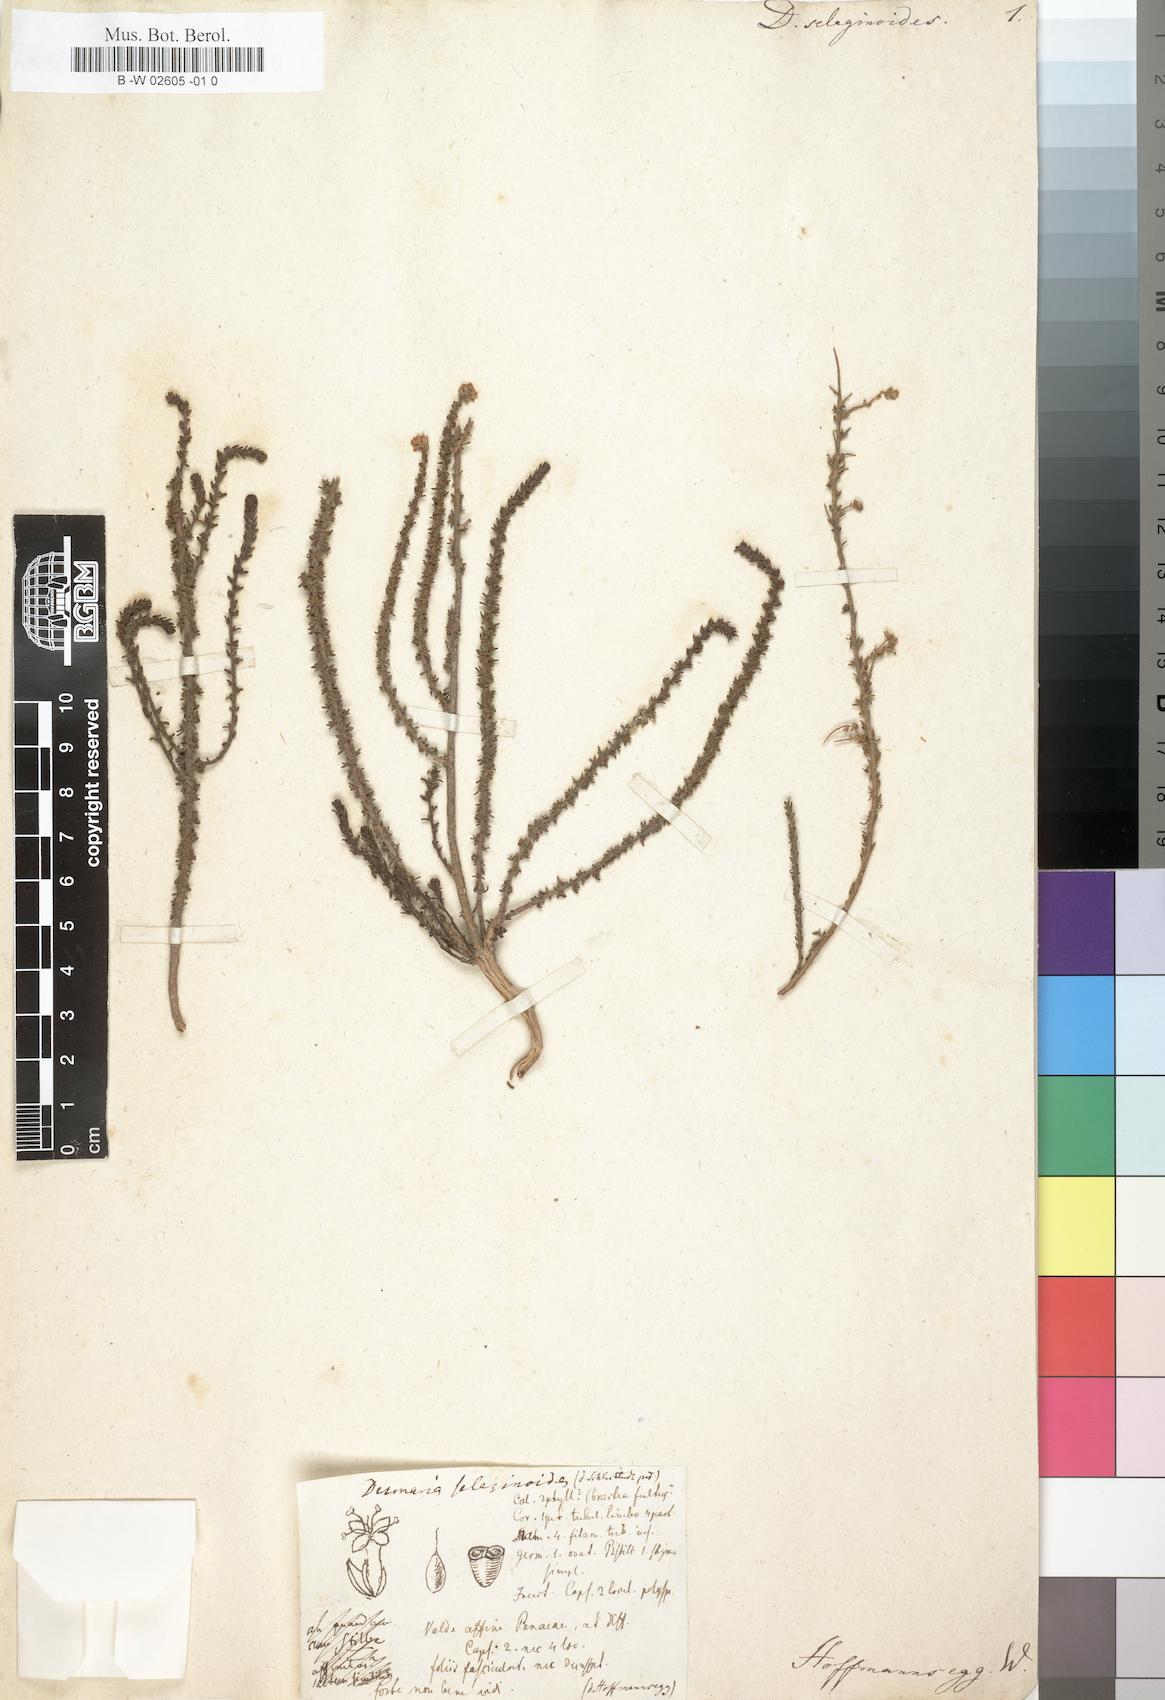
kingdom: Plantae
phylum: Tracheophyta
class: Magnoliopsida
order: Santalales
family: Loranthaceae
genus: Desmaria
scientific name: Desmaria
